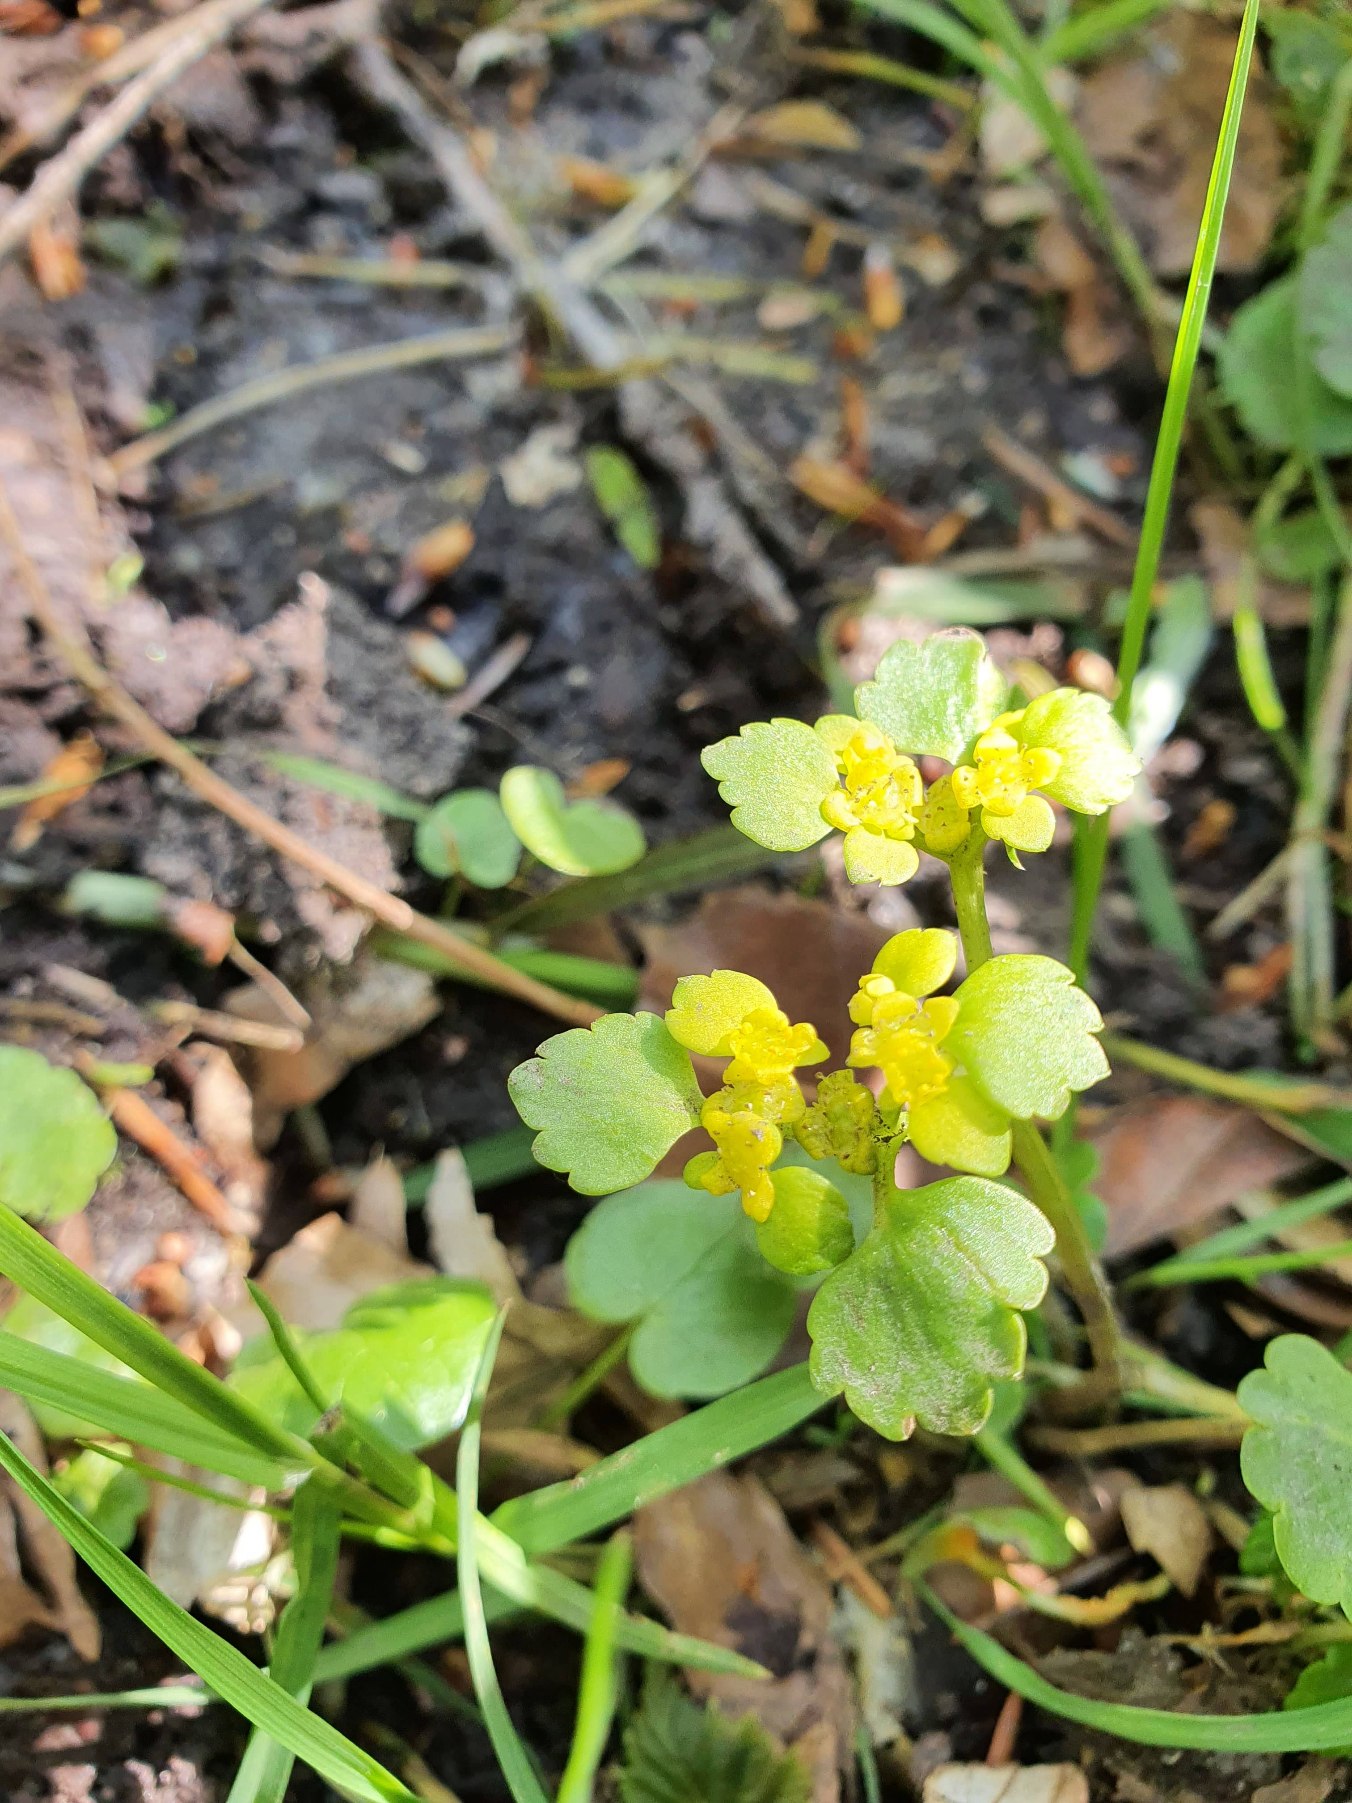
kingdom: Plantae
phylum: Tracheophyta
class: Magnoliopsida
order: Saxifragales
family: Saxifragaceae
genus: Chrysosplenium
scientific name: Chrysosplenium alternifolium
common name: Almindelig milturt
